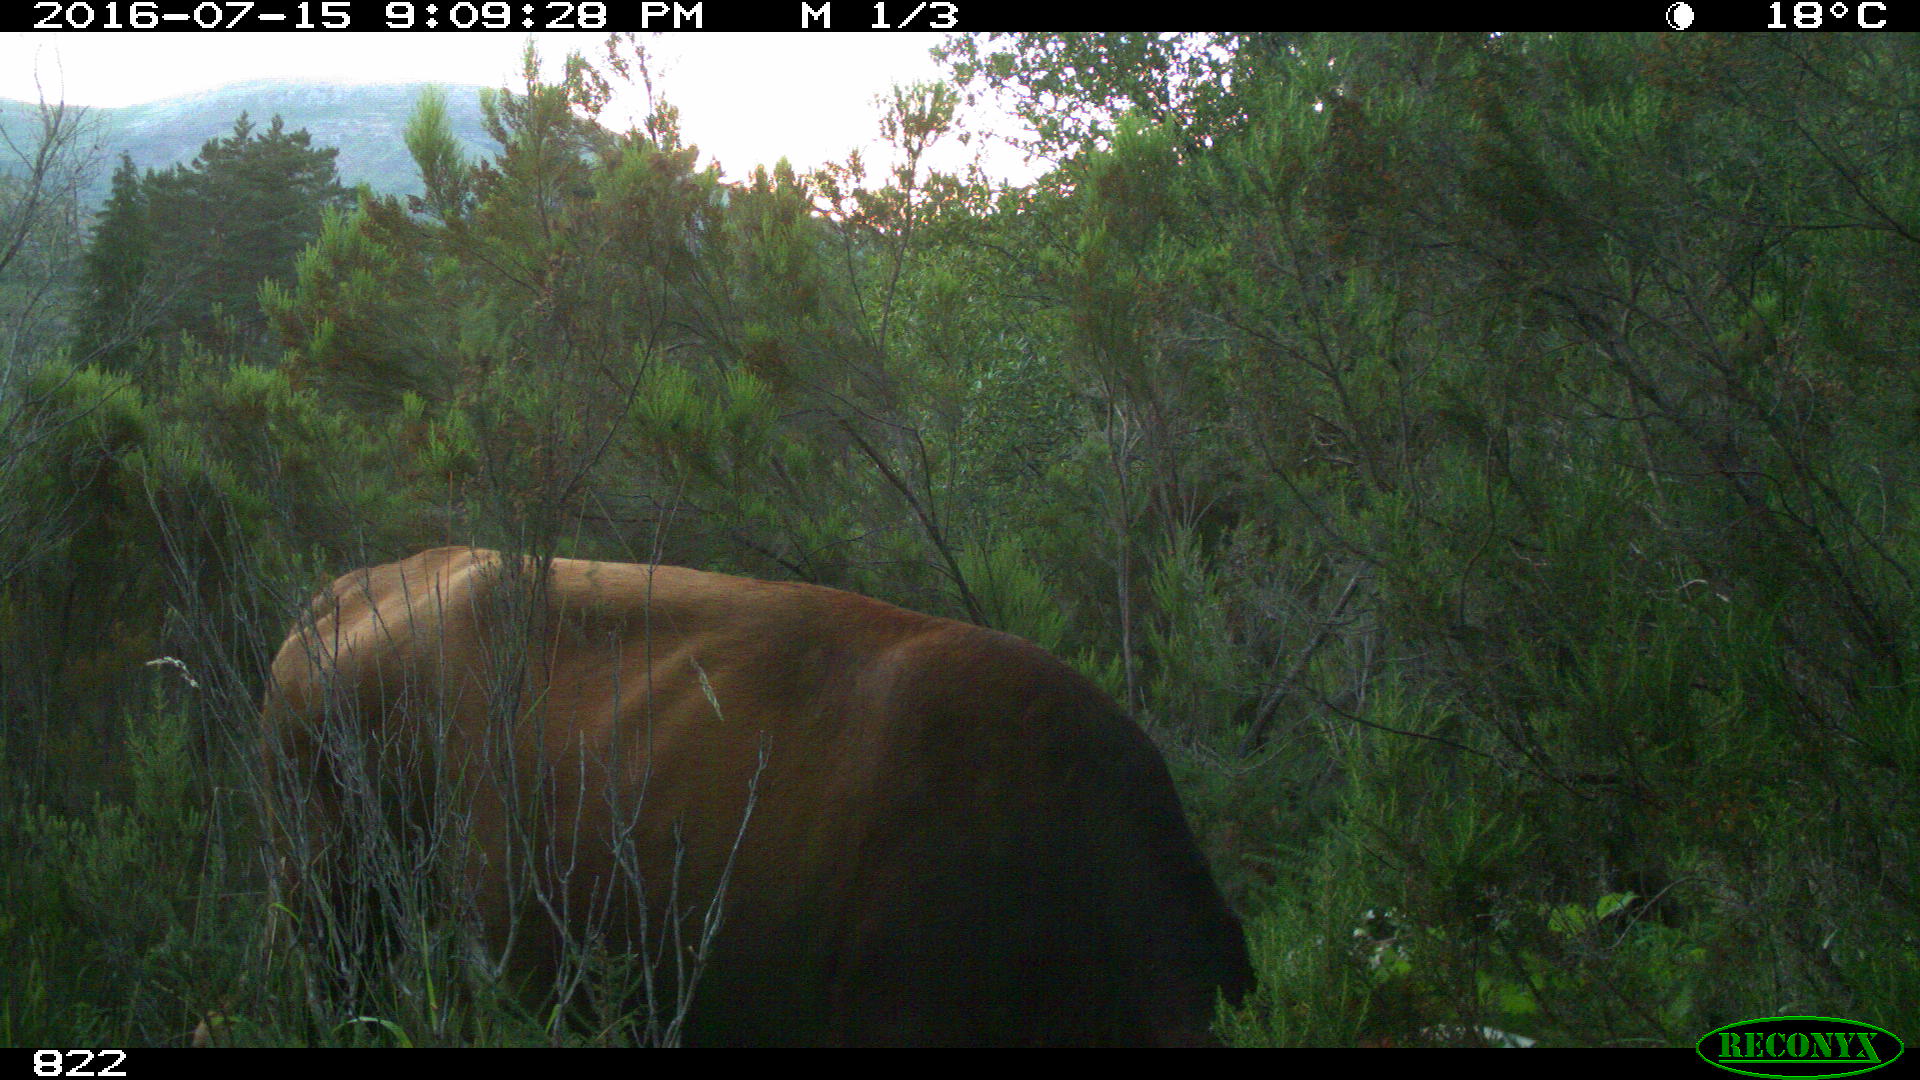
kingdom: Animalia
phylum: Chordata
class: Mammalia
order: Artiodactyla
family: Bovidae
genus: Bos
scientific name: Bos taurus
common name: Domesticated cattle
